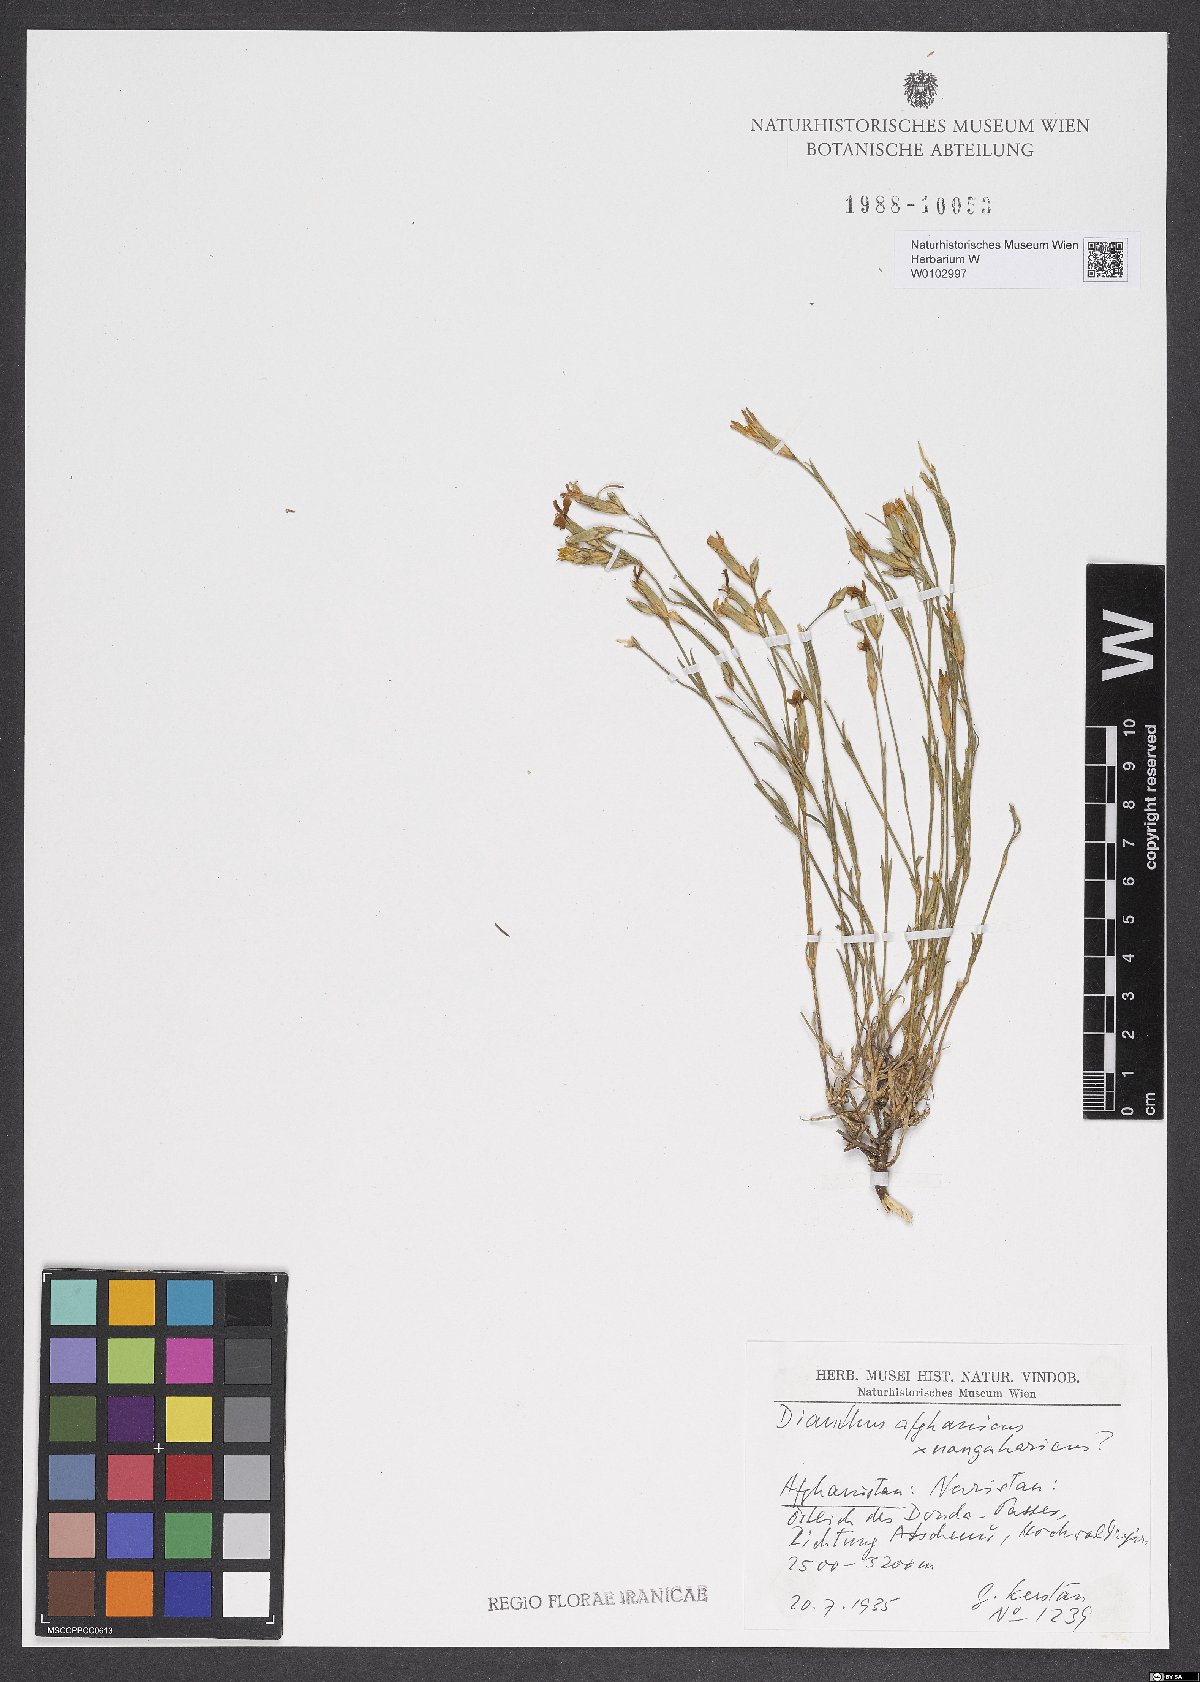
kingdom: Plantae
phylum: Tracheophyta
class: Magnoliopsida
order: Caryophyllales
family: Caryophyllaceae
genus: Dianthus
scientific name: Dianthus afghanicus
